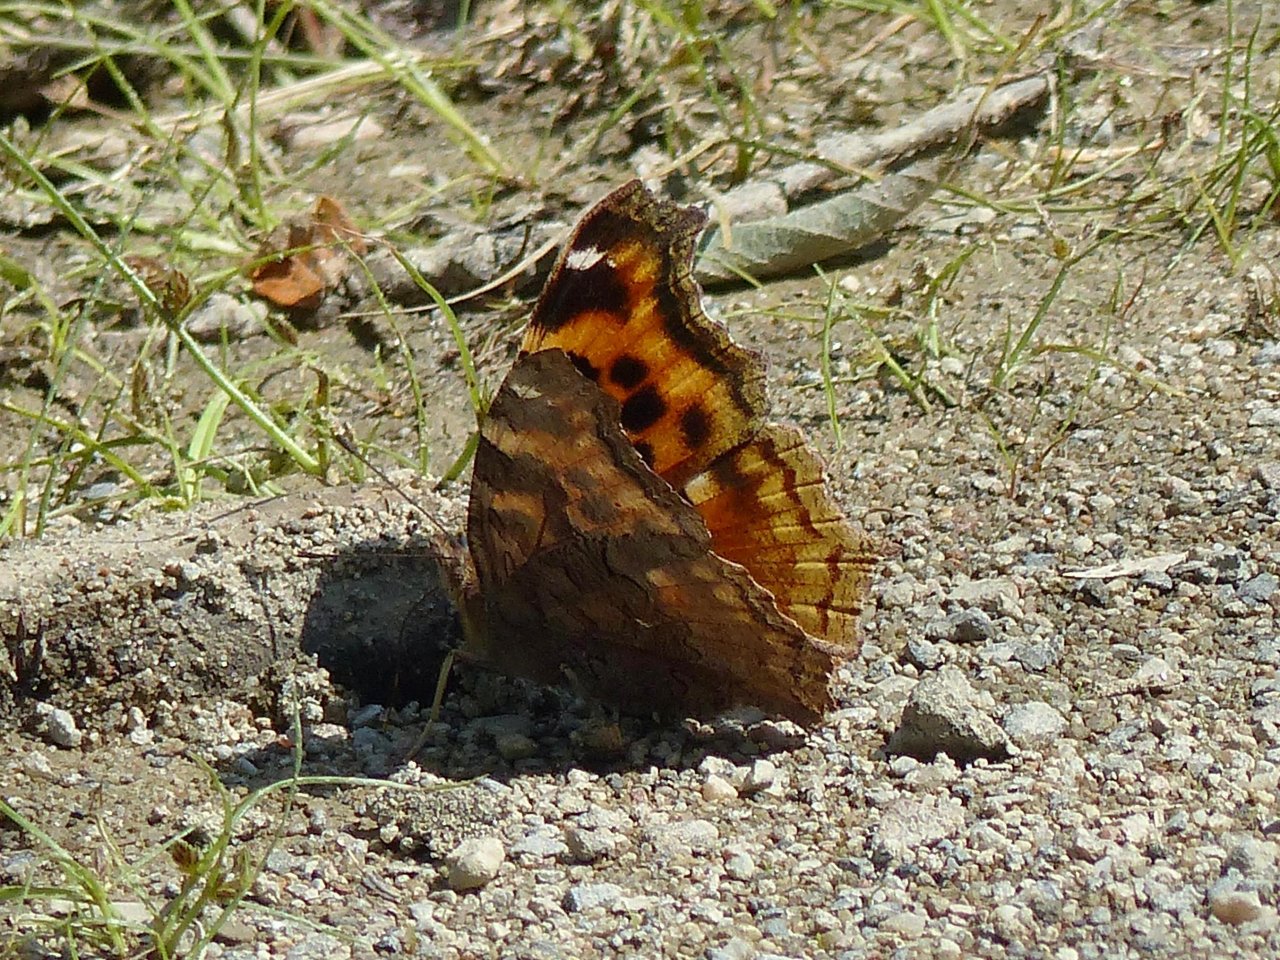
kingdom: Animalia
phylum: Arthropoda
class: Insecta
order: Lepidoptera
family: Nymphalidae
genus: Polygonia
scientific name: Polygonia vaualbum
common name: Compton Tortoiseshell
